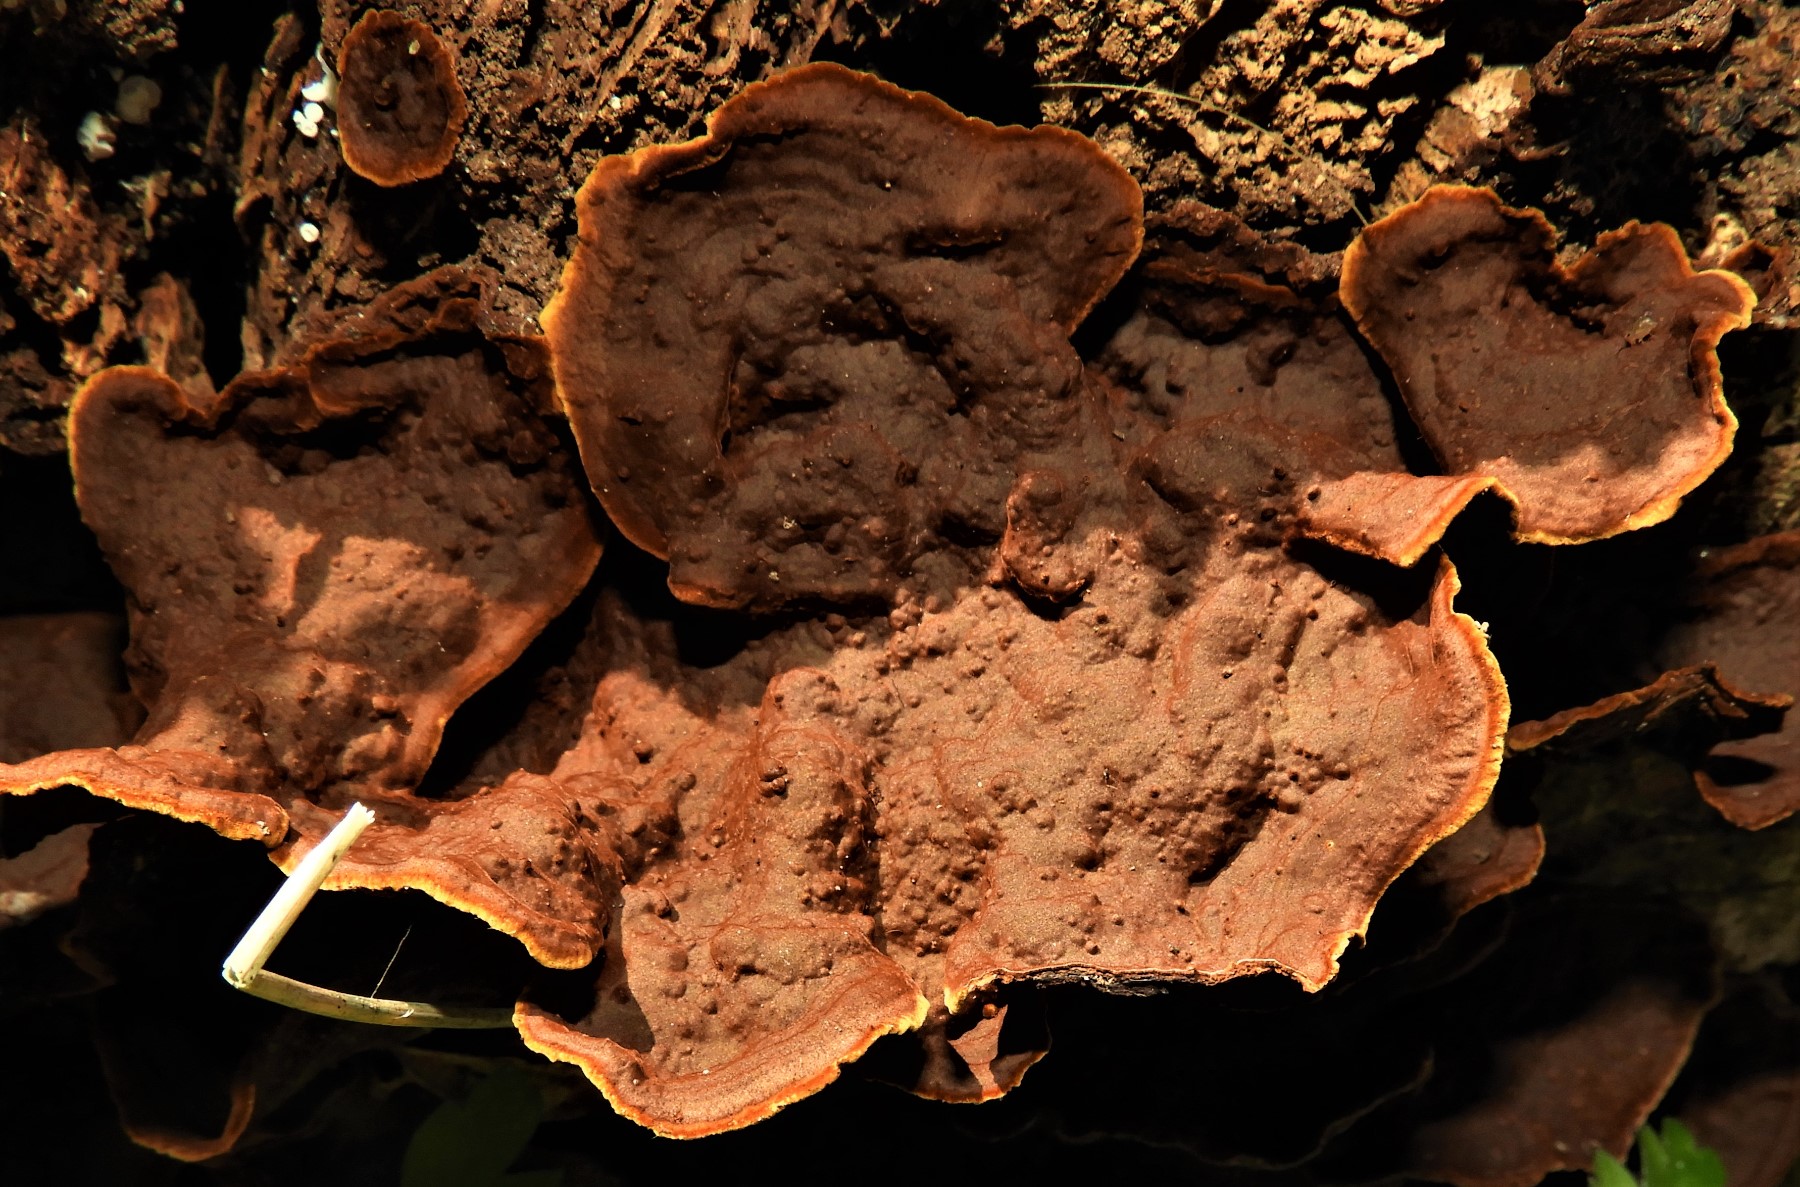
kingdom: Fungi
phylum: Basidiomycota
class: Agaricomycetes
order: Hymenochaetales
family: Hymenochaetaceae
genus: Hymenochaete
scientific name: Hymenochaete rubiginosa
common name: stiv ruslædersvamp
